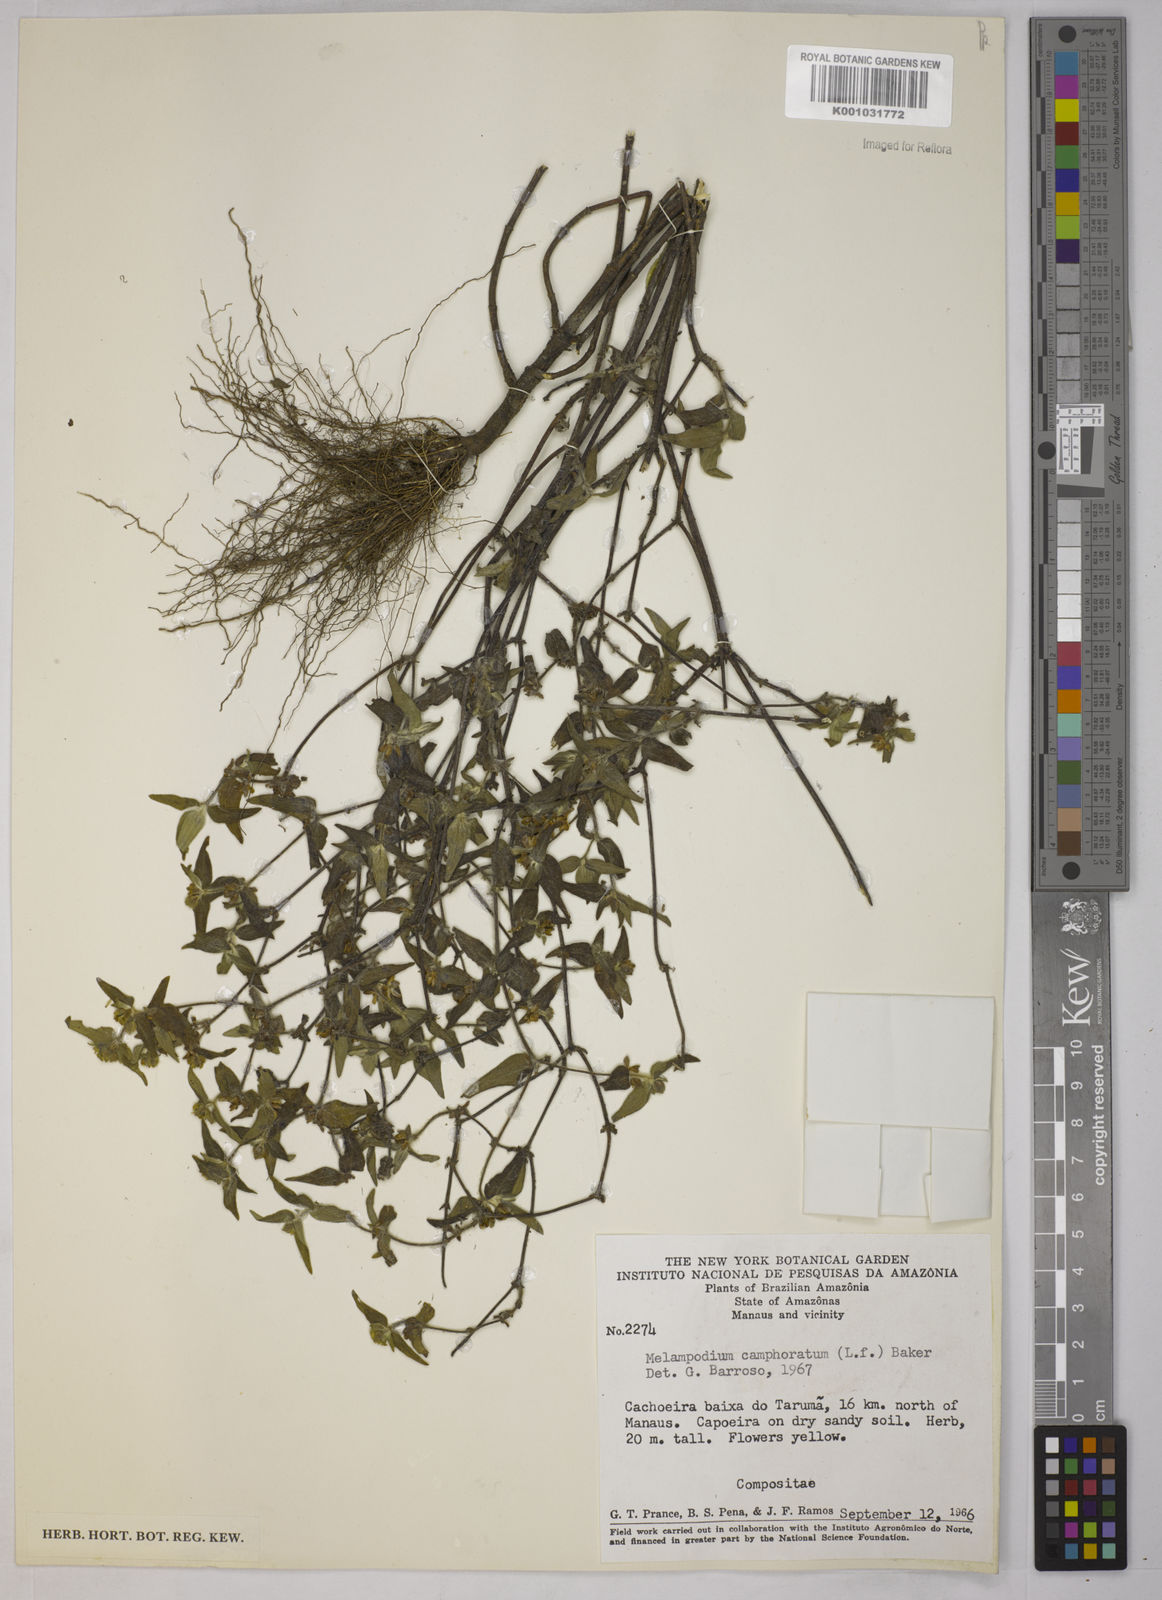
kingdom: Plantae
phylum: Tracheophyta
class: Magnoliopsida
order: Asterales
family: Asteraceae
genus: Unxia
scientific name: Unxia camphorata
